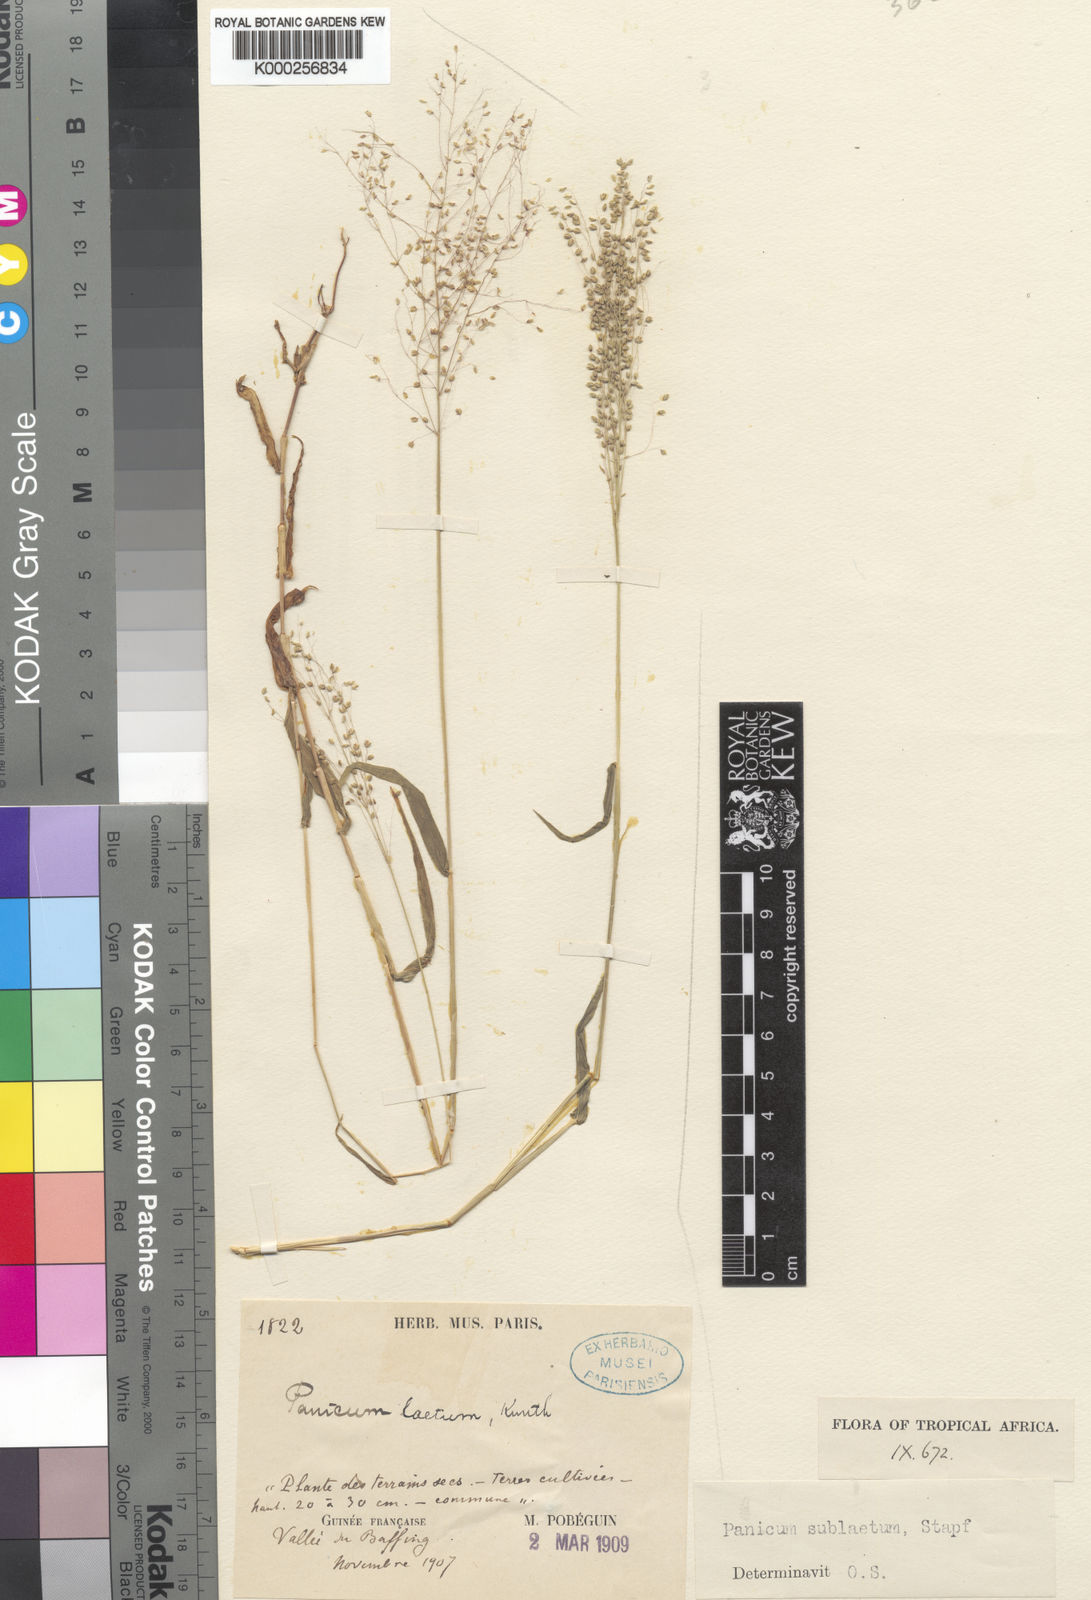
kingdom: Plantae
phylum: Tracheophyta
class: Liliopsida
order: Poales
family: Poaceae
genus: Trichanthecium
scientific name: Trichanthecium gracilicaule
